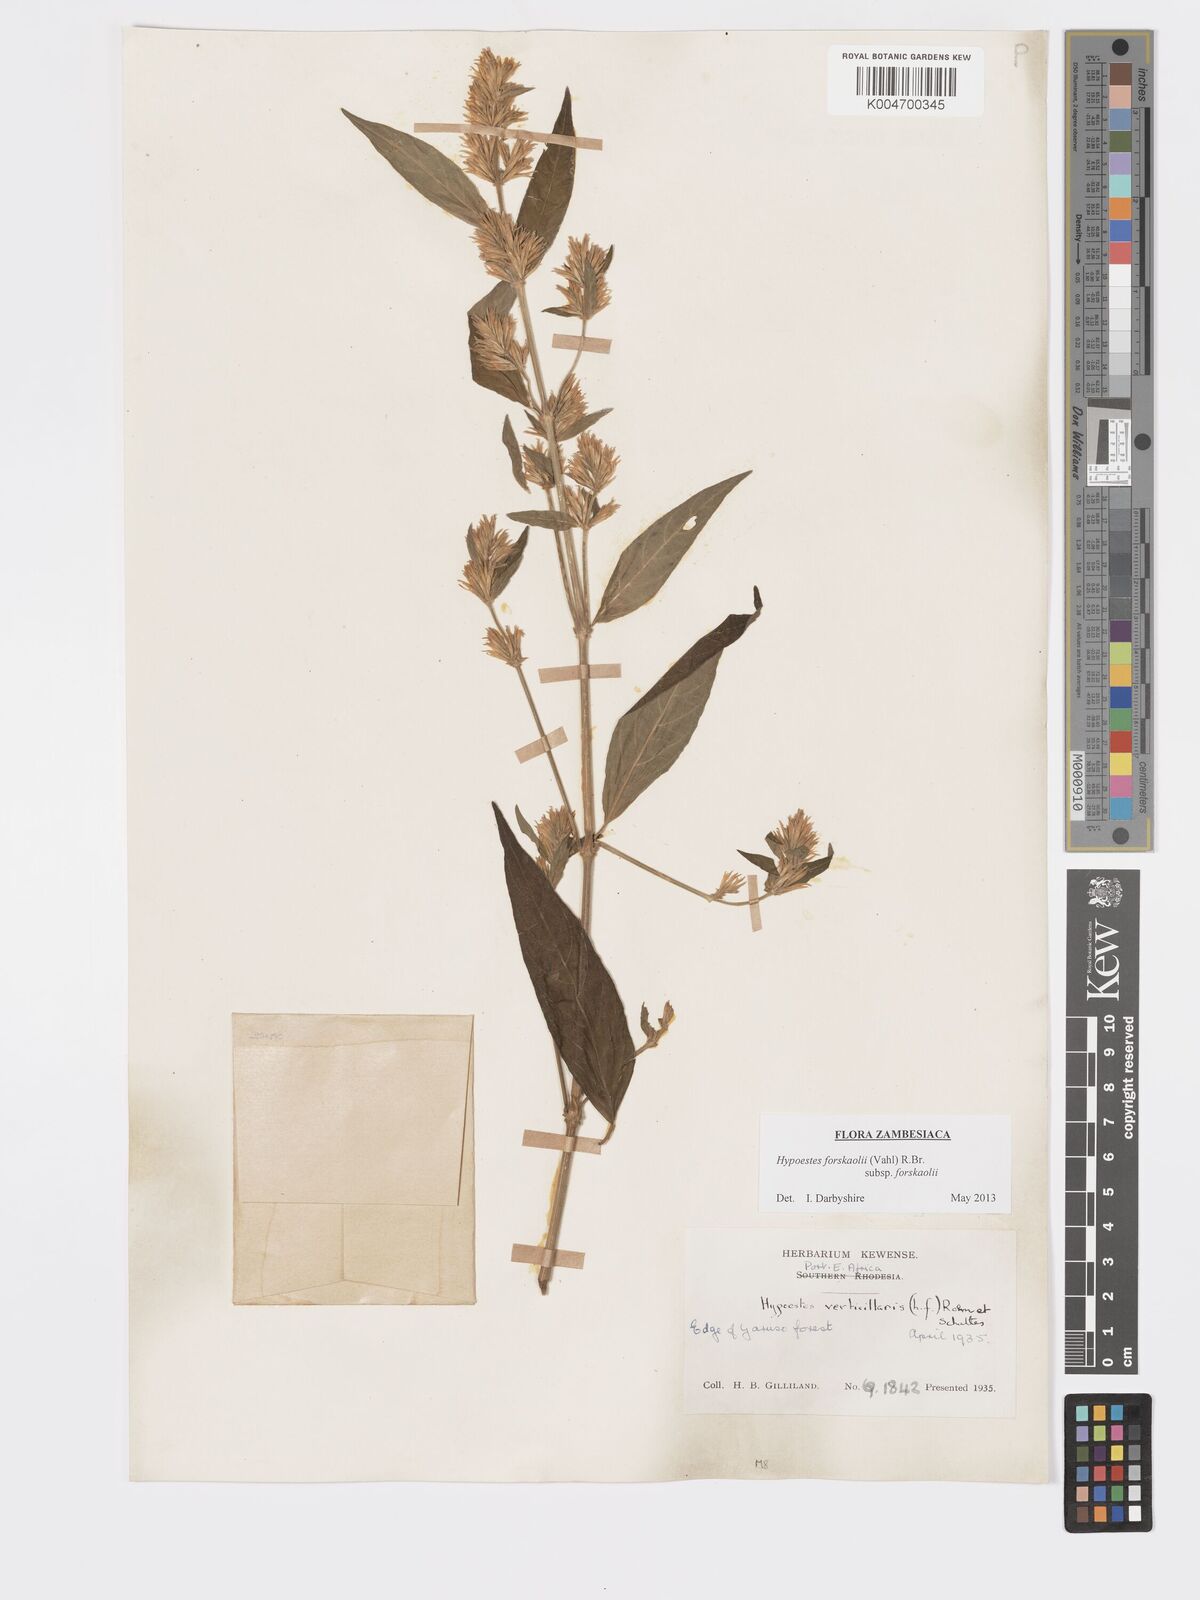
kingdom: Plantae
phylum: Tracheophyta
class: Magnoliopsida
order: Lamiales
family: Acanthaceae
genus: Hypoestes
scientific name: Hypoestes forskaolii
